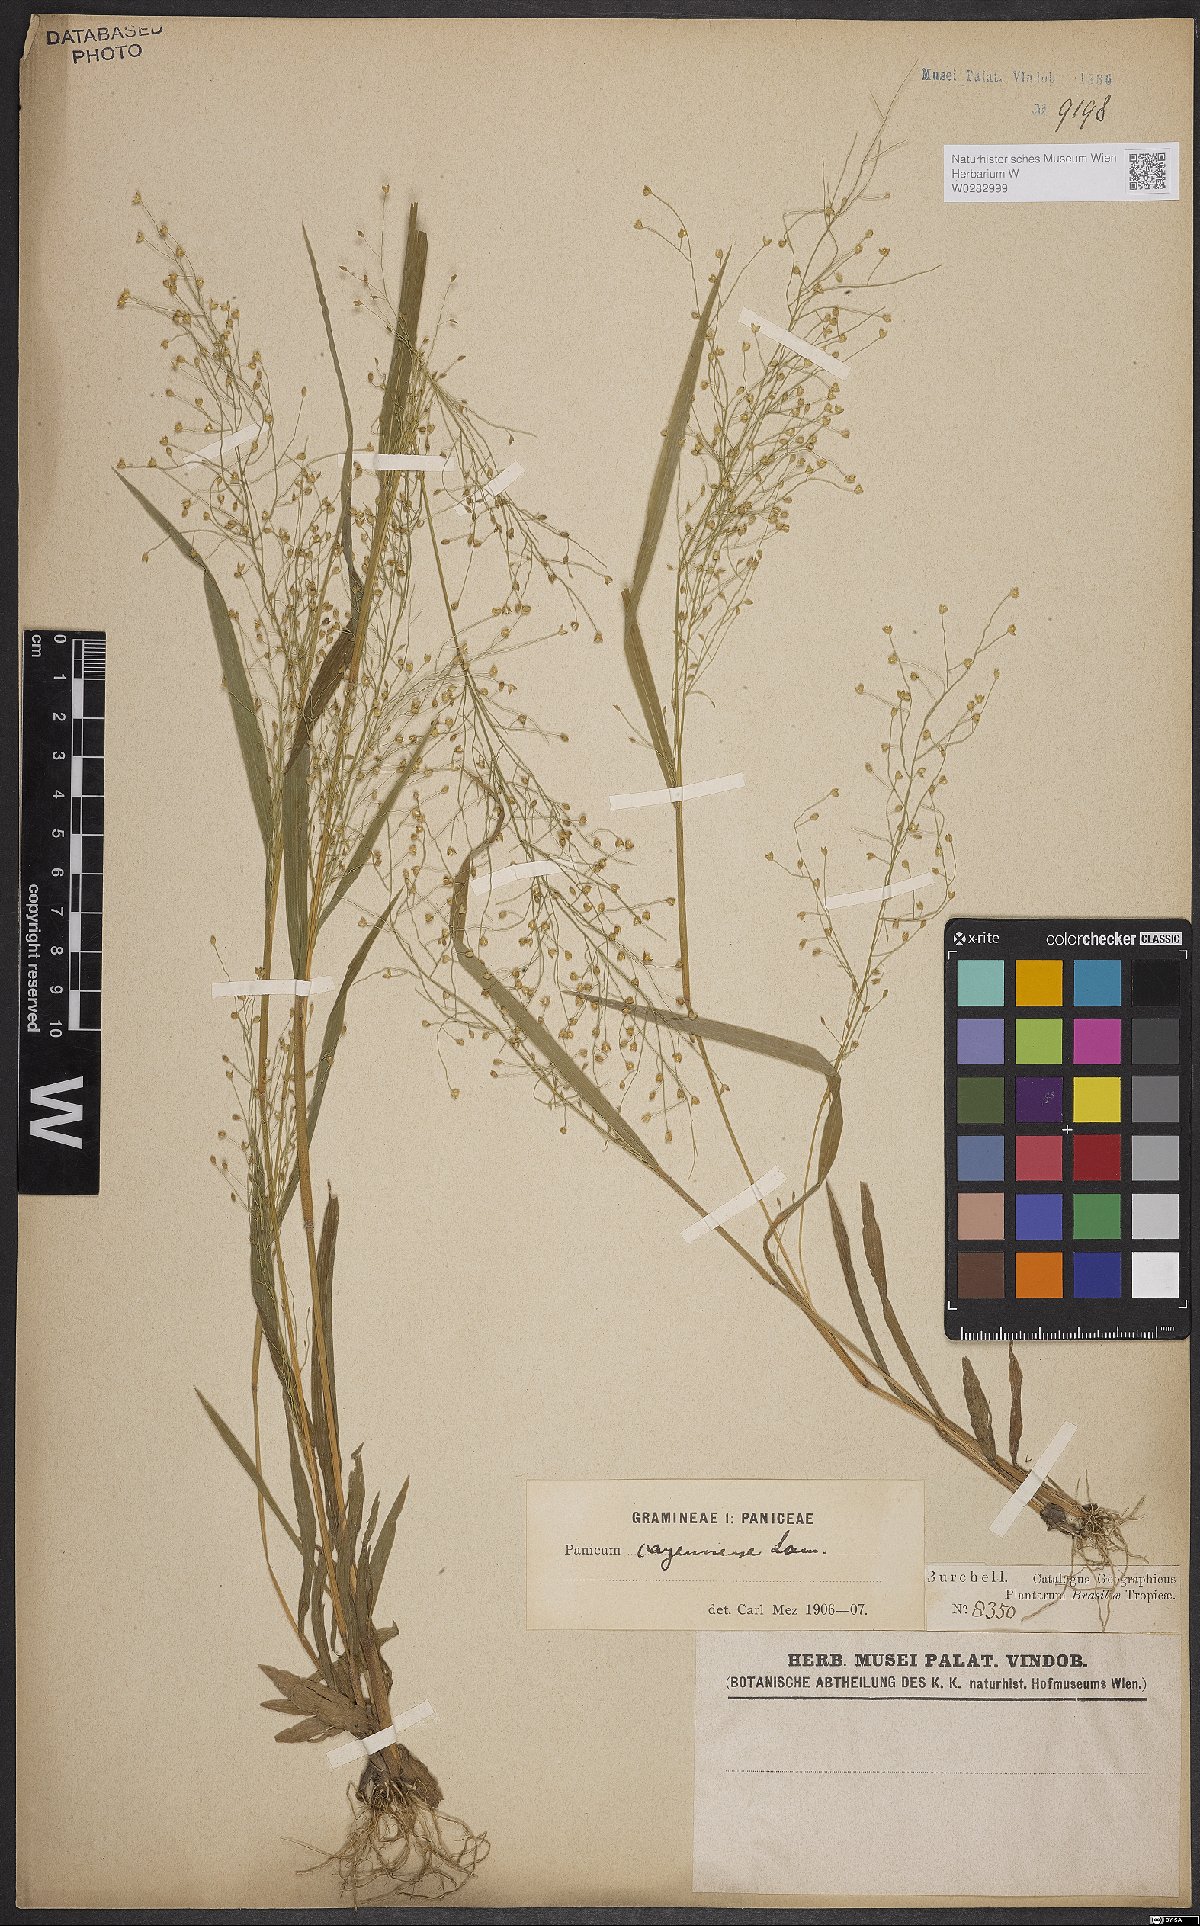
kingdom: Plantae
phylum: Tracheophyta
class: Liliopsida
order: Poales
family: Poaceae
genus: Panicum
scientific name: Panicum cayennense
